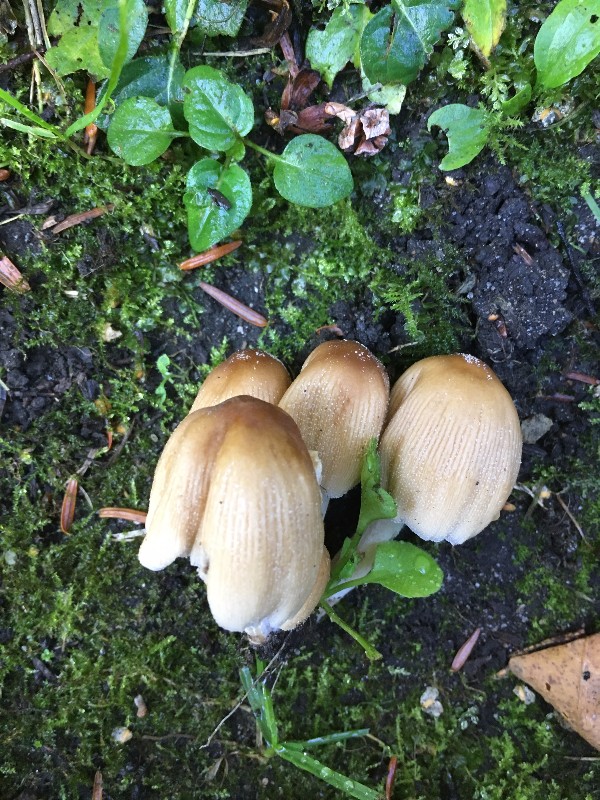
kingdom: Fungi
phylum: Basidiomycota
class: Agaricomycetes
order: Agaricales
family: Psathyrellaceae
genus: Coprinellus
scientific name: Coprinellus
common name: blækhat
